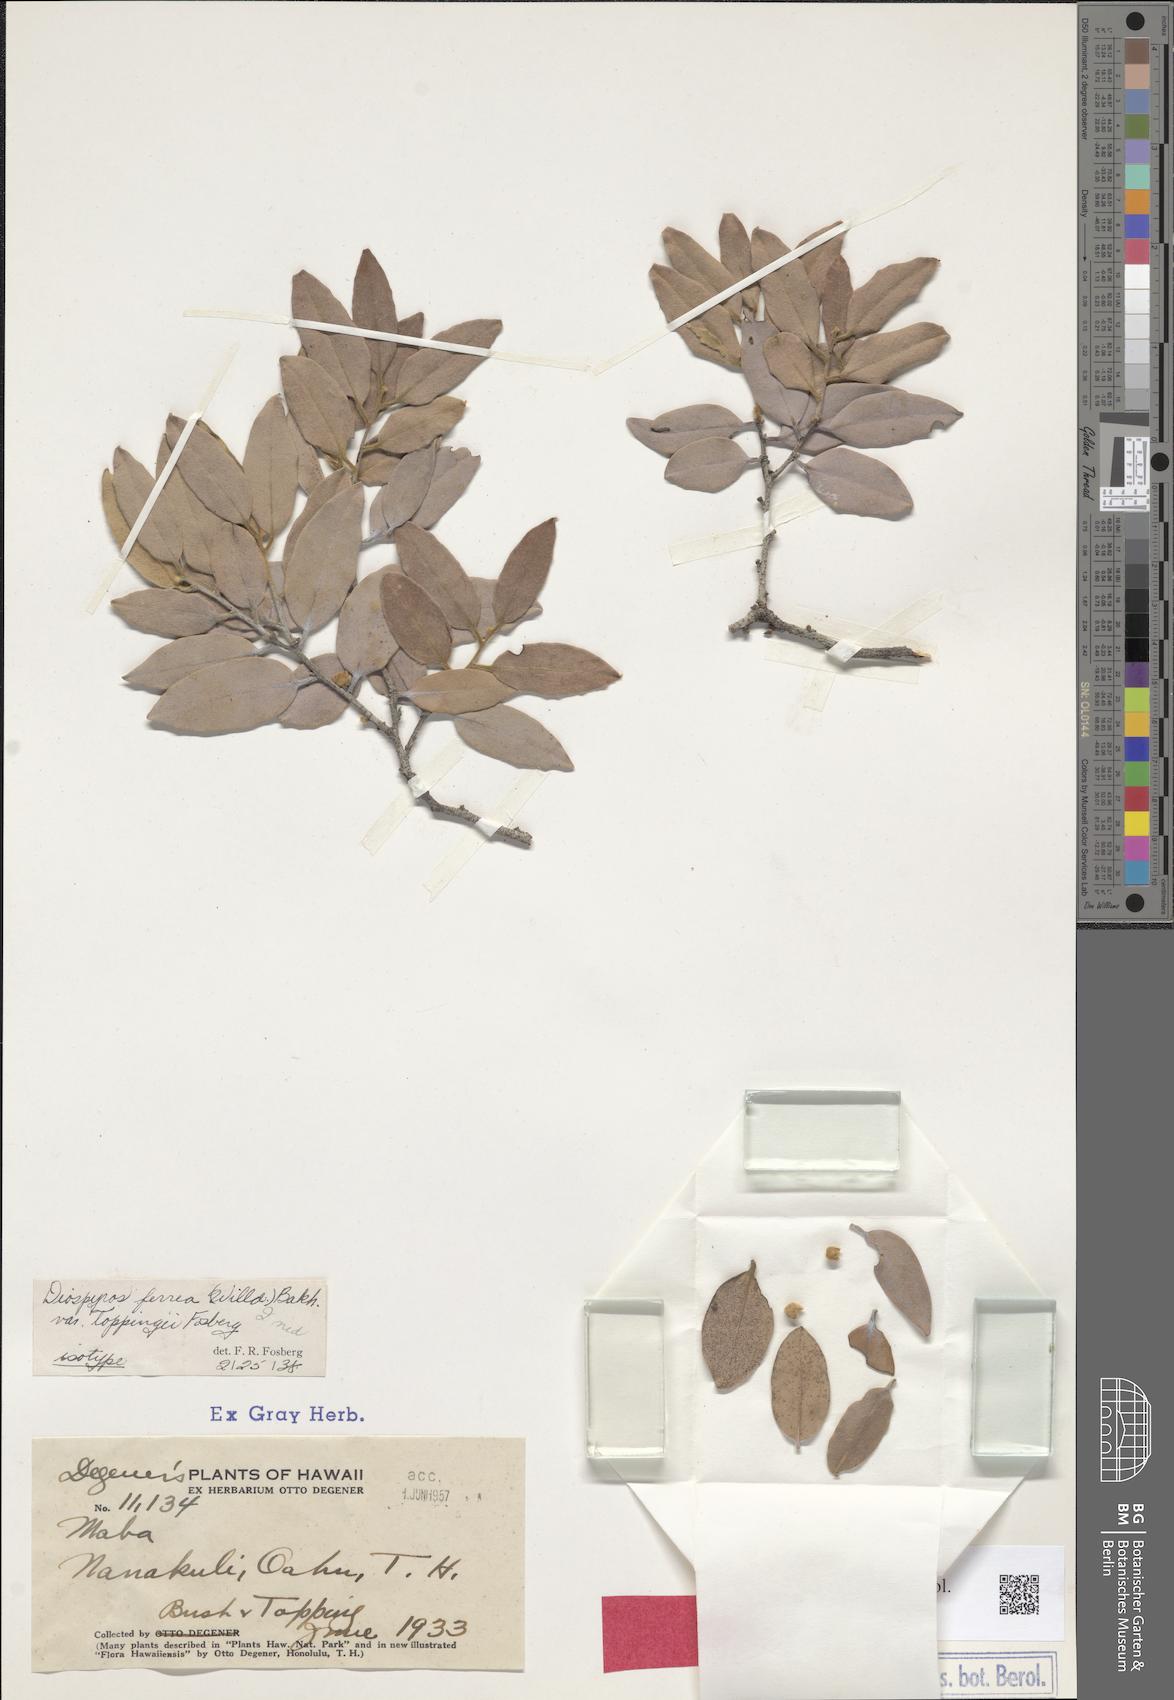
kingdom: Plantae
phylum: Tracheophyta
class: Magnoliopsida
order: Ericales
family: Ebenaceae
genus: Diospyros
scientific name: Diospyros sandwicensis
